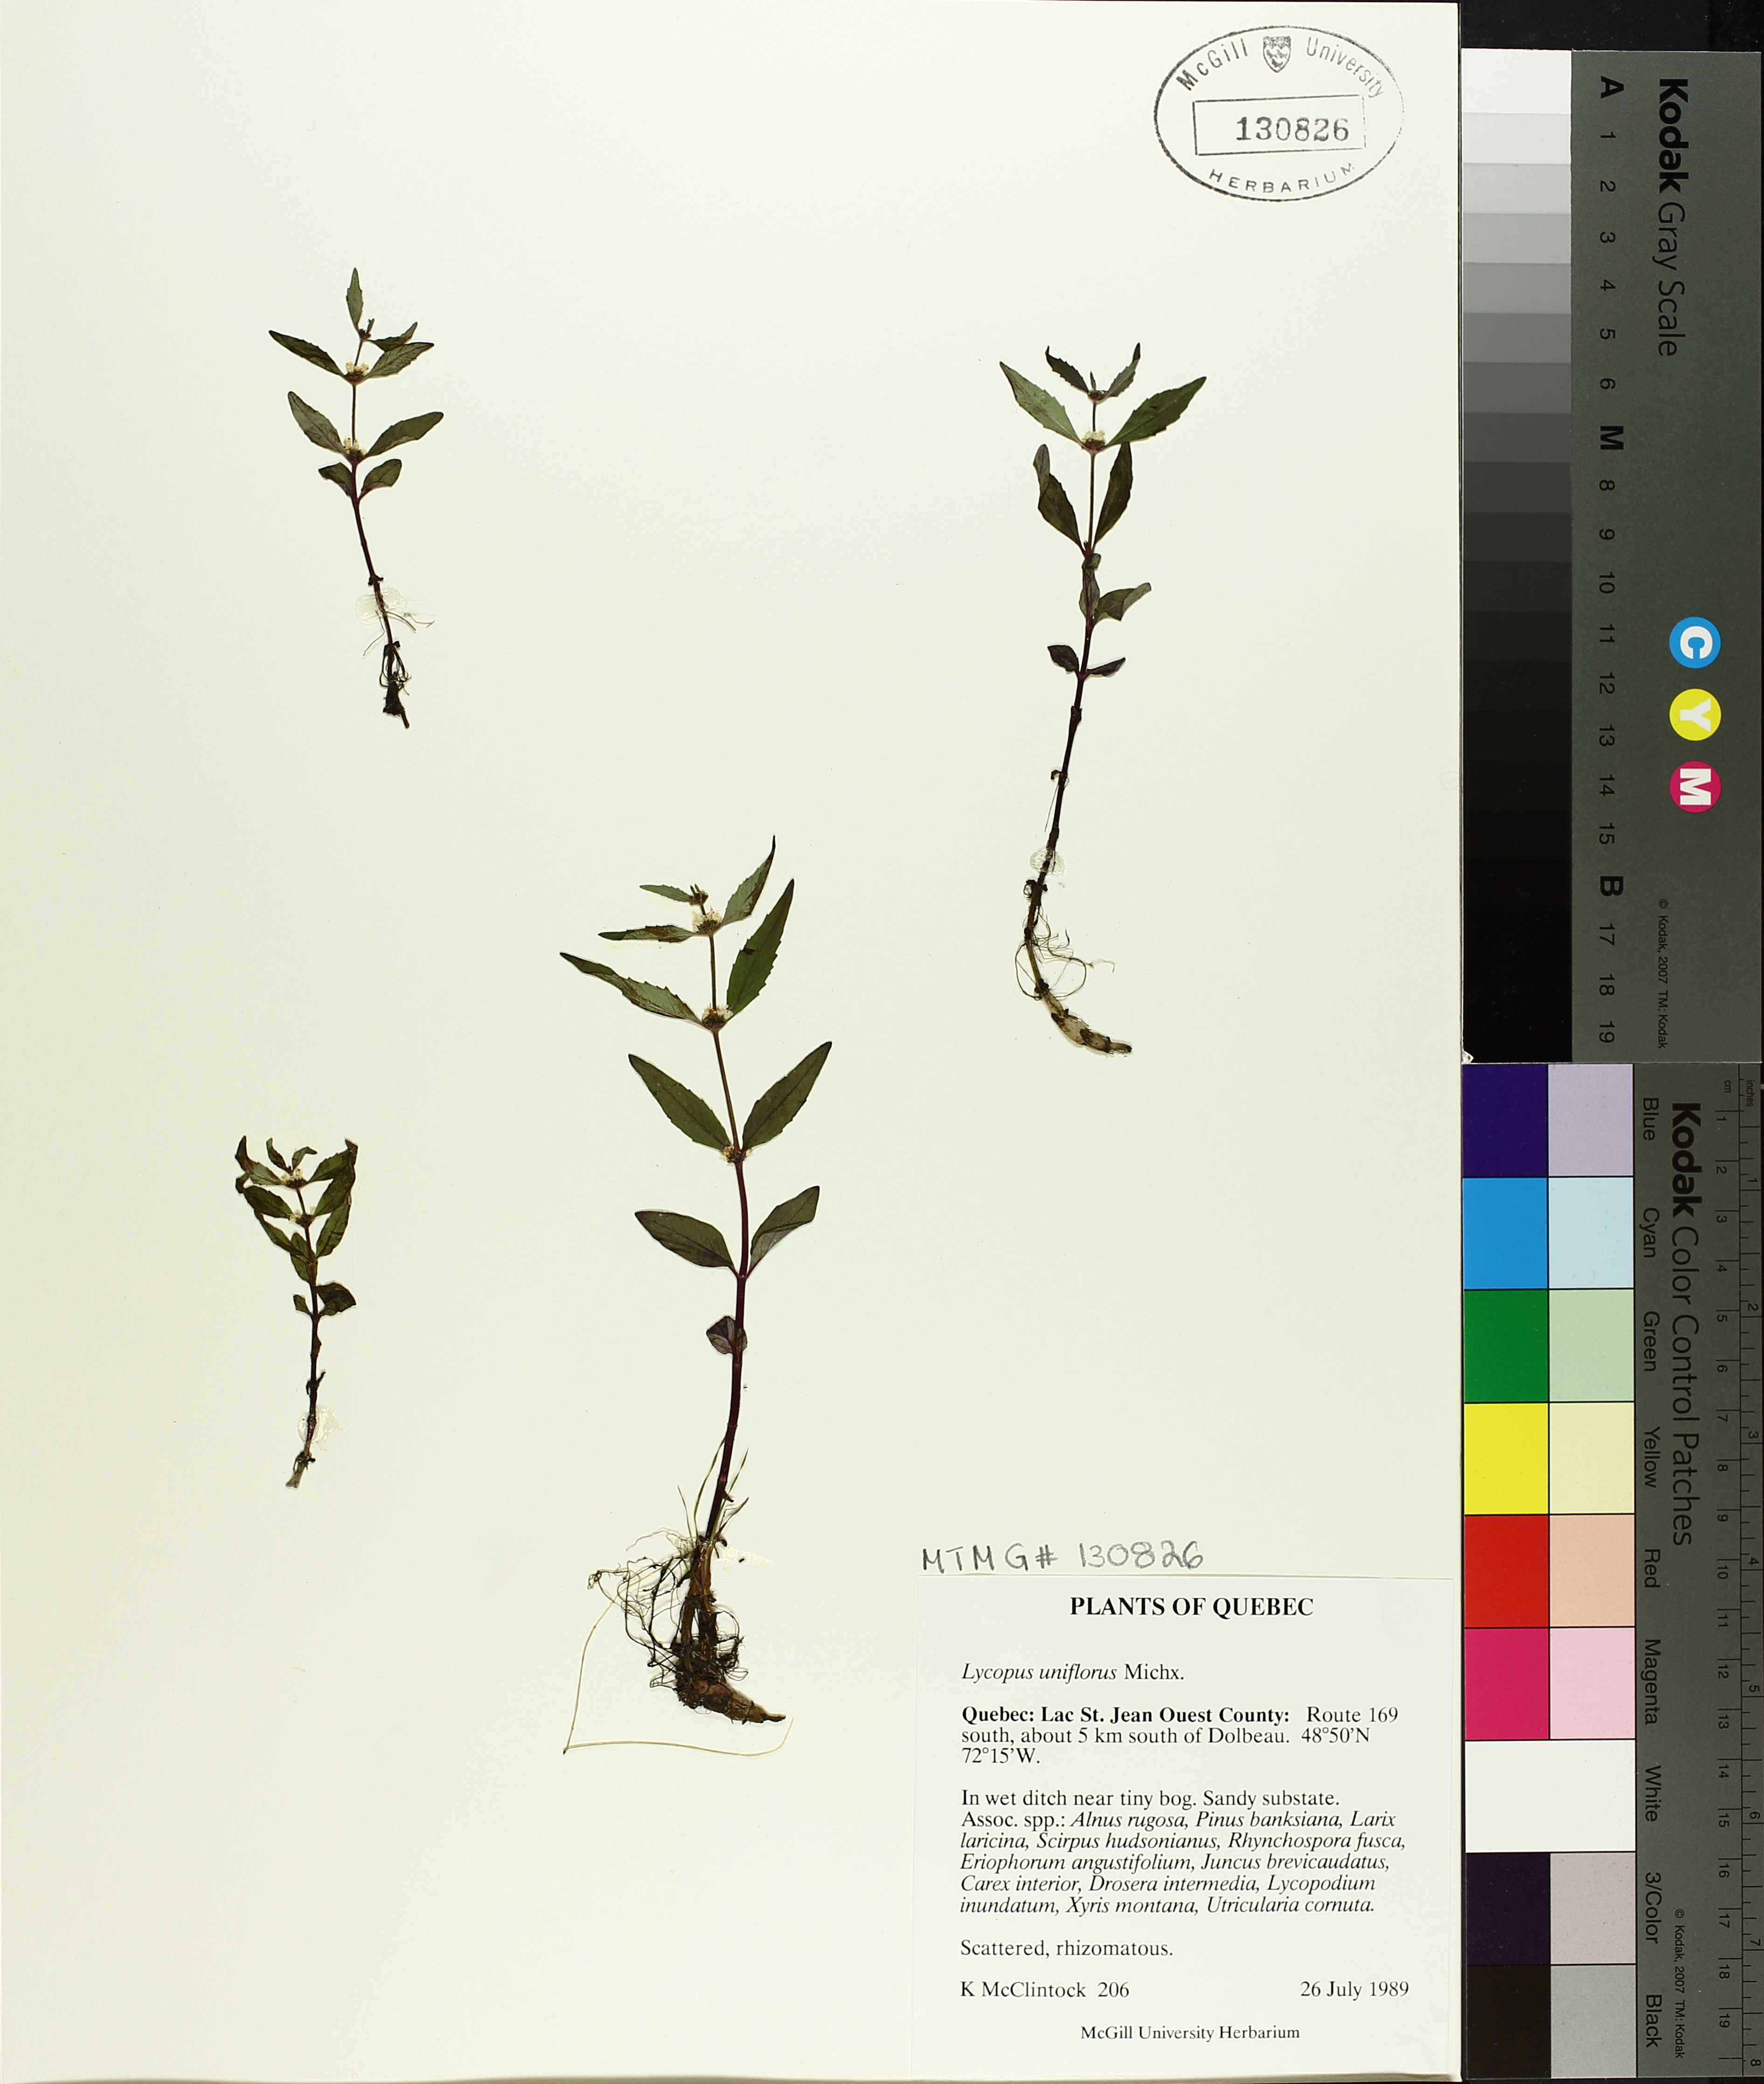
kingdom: Plantae
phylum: Tracheophyta
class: Magnoliopsida
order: Lamiales
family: Lamiaceae
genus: Lycopus
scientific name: Lycopus uniflorus
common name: Northern bugleweed
